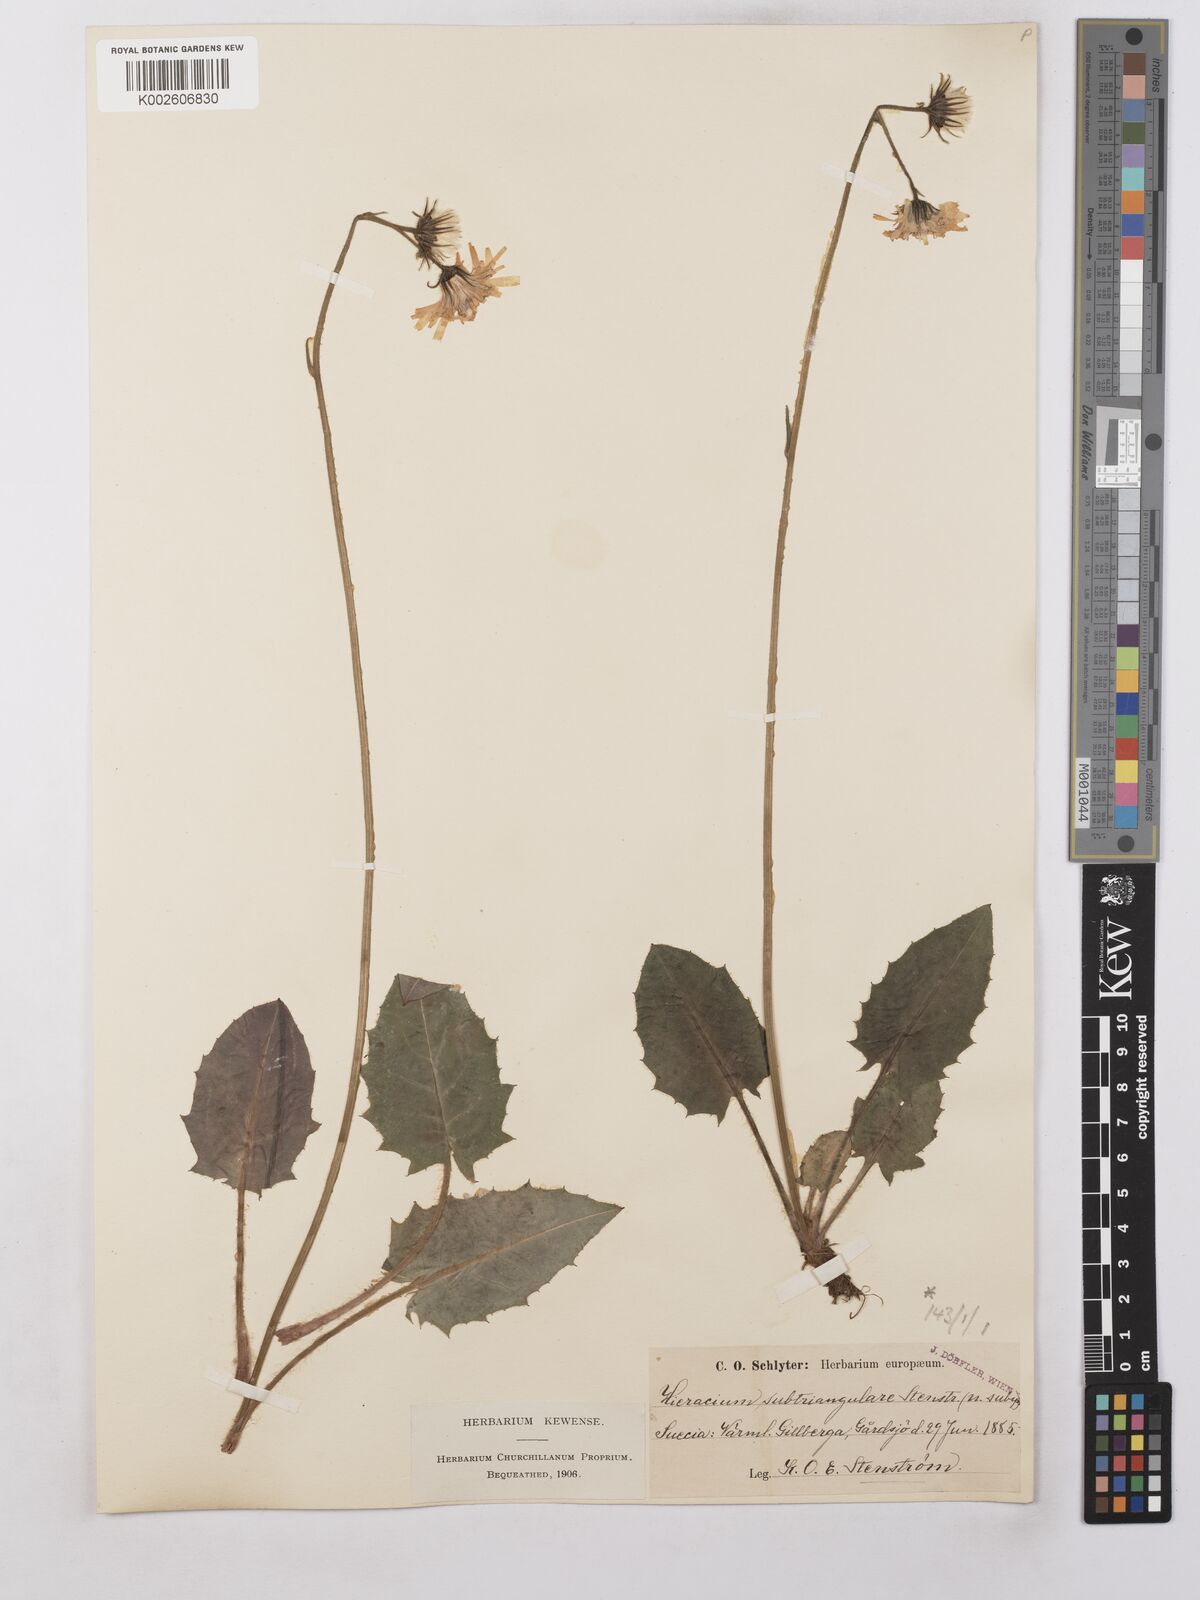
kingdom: Plantae
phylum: Tracheophyta
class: Magnoliopsida
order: Asterales
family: Asteraceae
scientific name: Asteraceae
